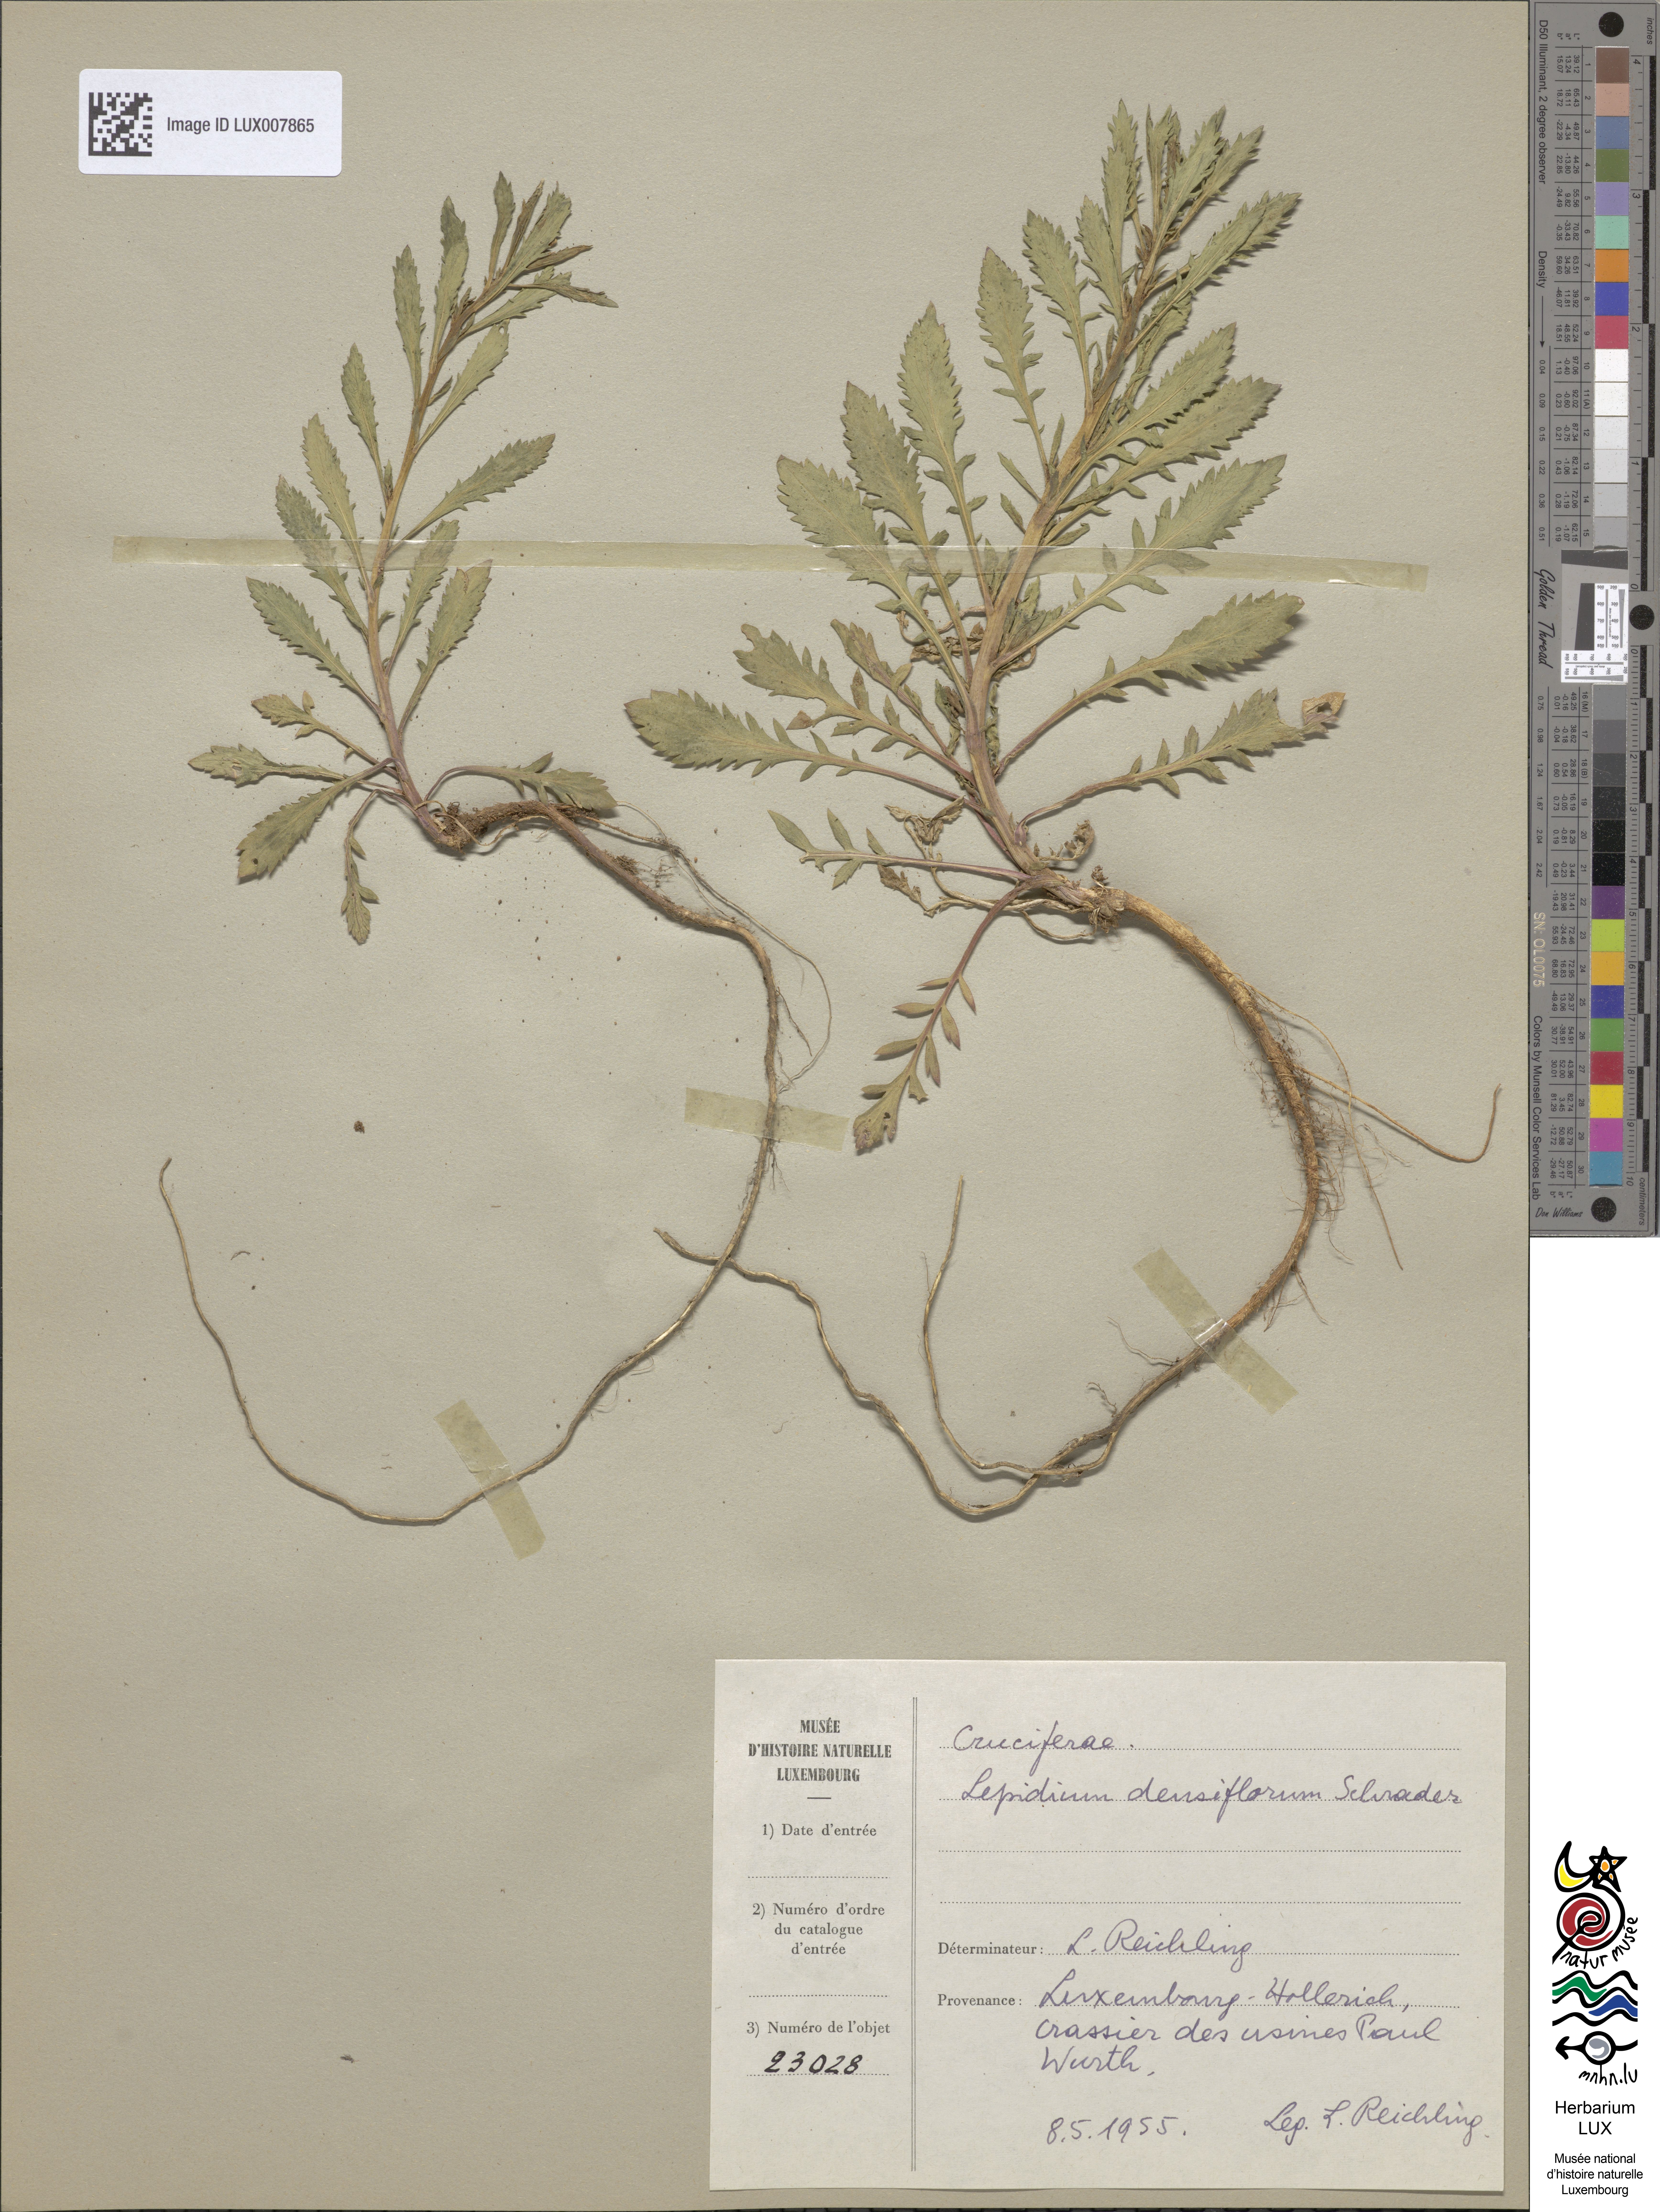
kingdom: Plantae
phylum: Tracheophyta
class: Magnoliopsida
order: Brassicales
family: Brassicaceae
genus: Lepidium
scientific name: Lepidium densiflorum
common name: Miner's pepperwort
